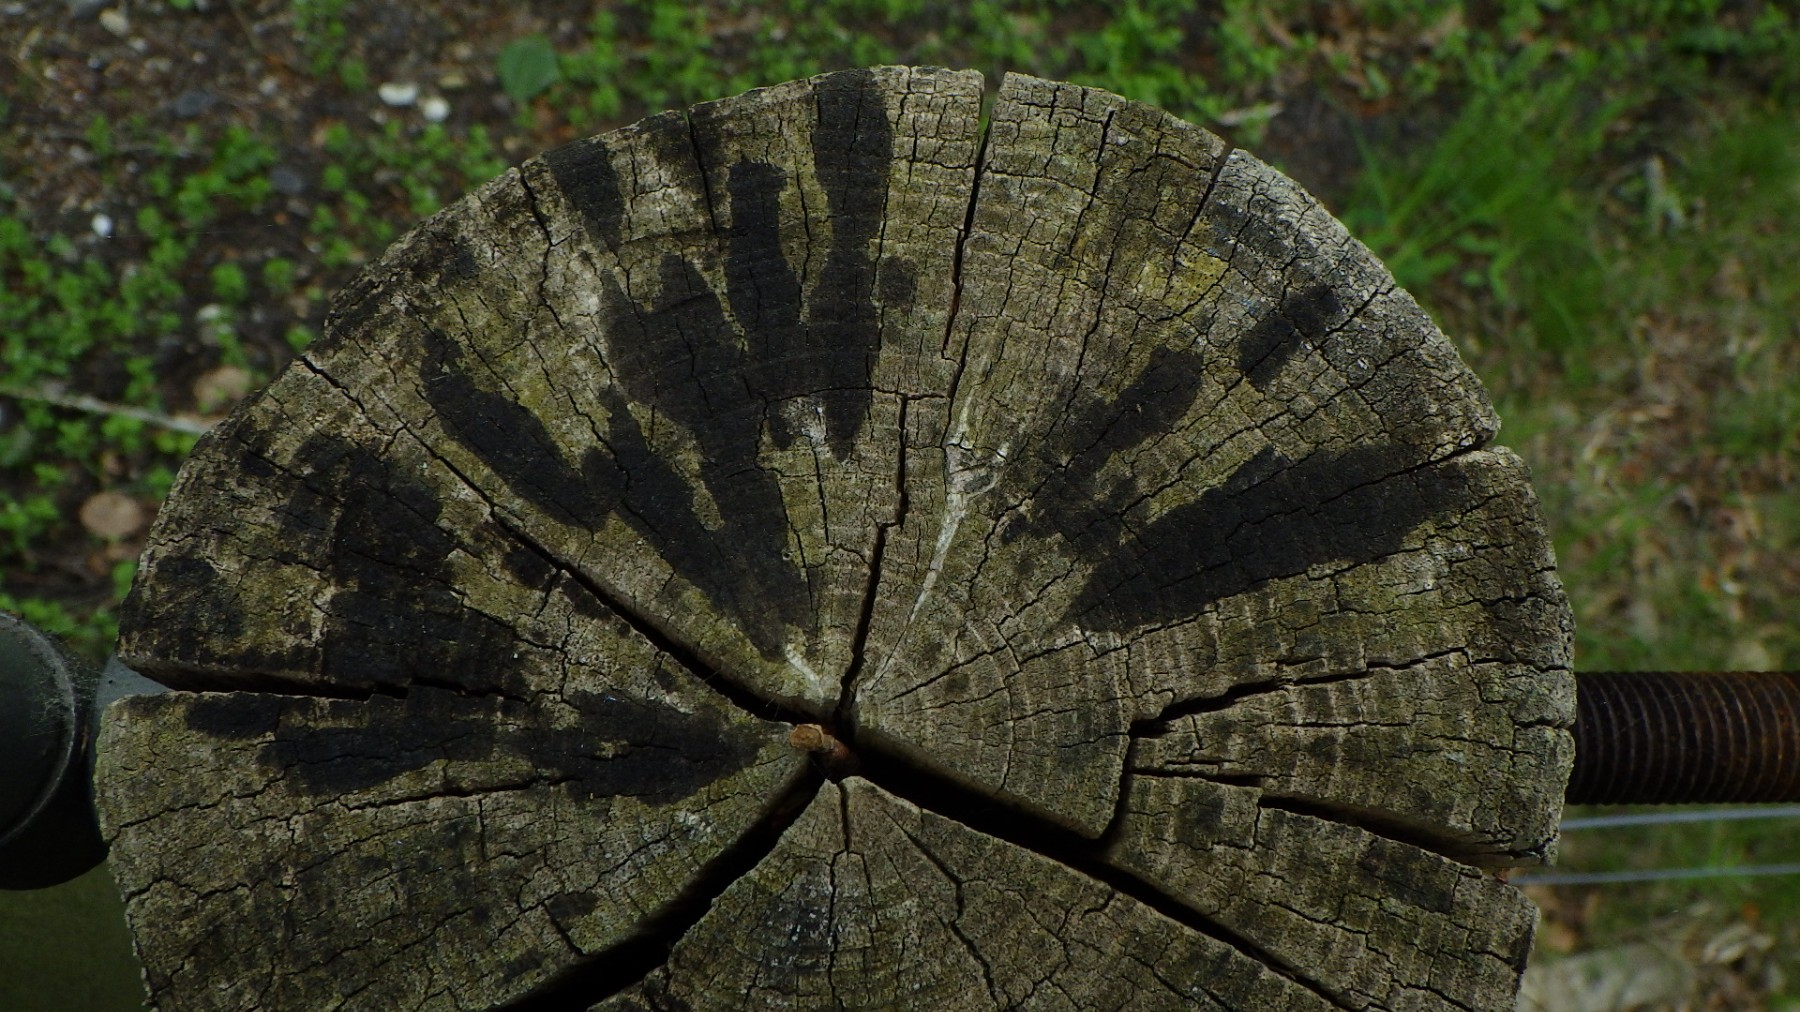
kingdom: Fungi
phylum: Ascomycota
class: Leotiomycetes
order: Helotiales
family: Helotiaceae
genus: Bispora
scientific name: Bispora pallescens
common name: måtte-snitskive
